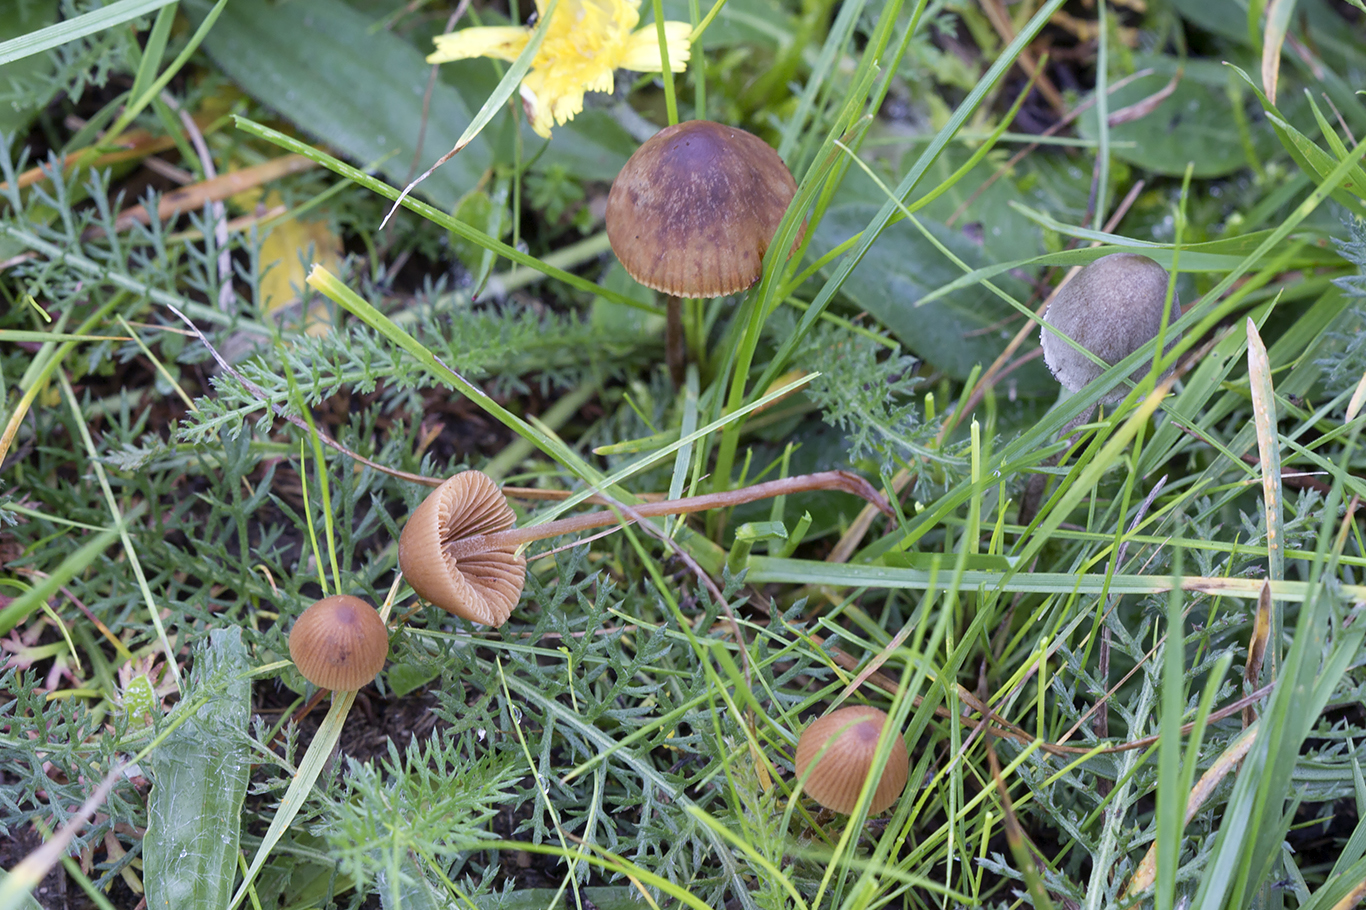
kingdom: Fungi
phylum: Basidiomycota
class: Agaricomycetes
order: Agaricales
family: Bolbitiaceae
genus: Conocybe
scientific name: Conocybe brunneidisca
